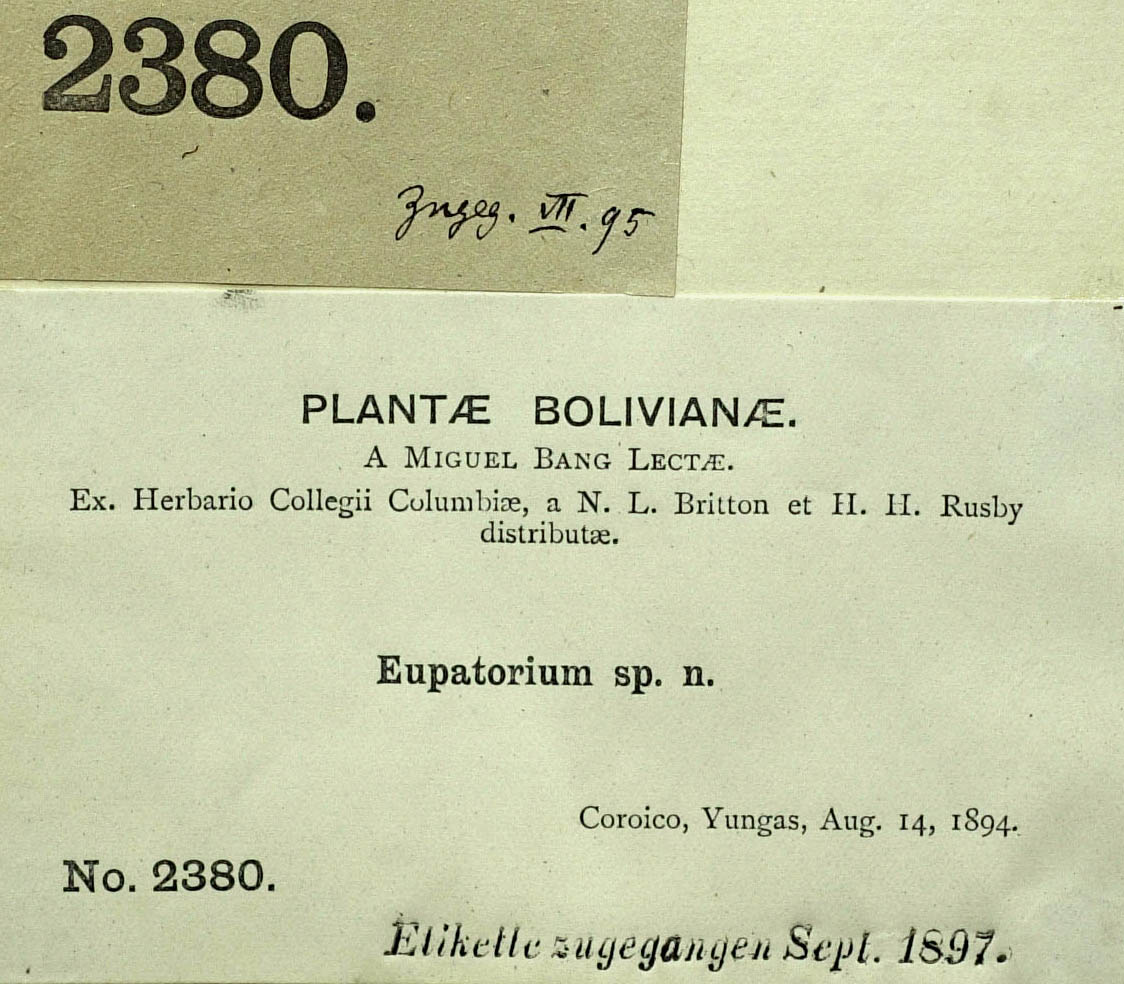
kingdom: Plantae
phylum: Tracheophyta
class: Magnoliopsida
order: Asterales
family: Asteraceae
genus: Ayapanopsis
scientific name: Ayapanopsis triosteifolia
